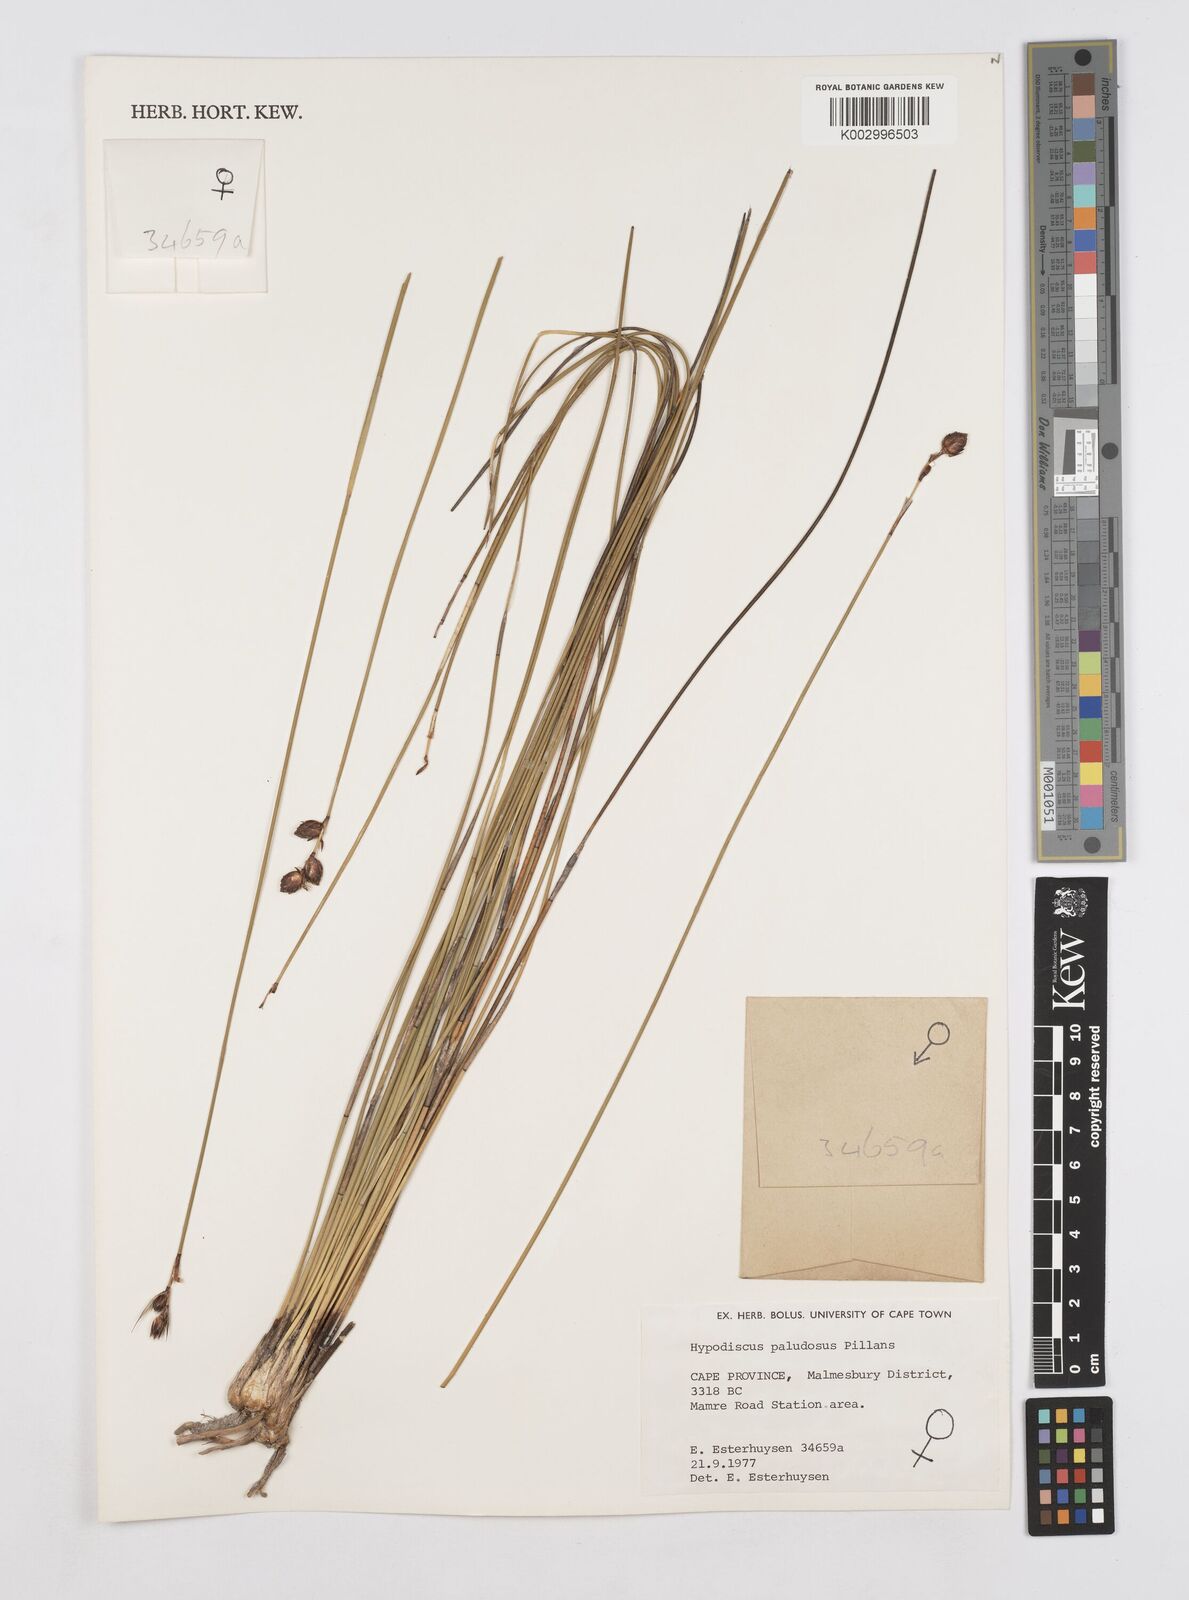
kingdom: Plantae
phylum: Tracheophyta
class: Liliopsida
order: Poales
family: Restionaceae
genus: Hypodiscus
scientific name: Hypodiscus rugosus
